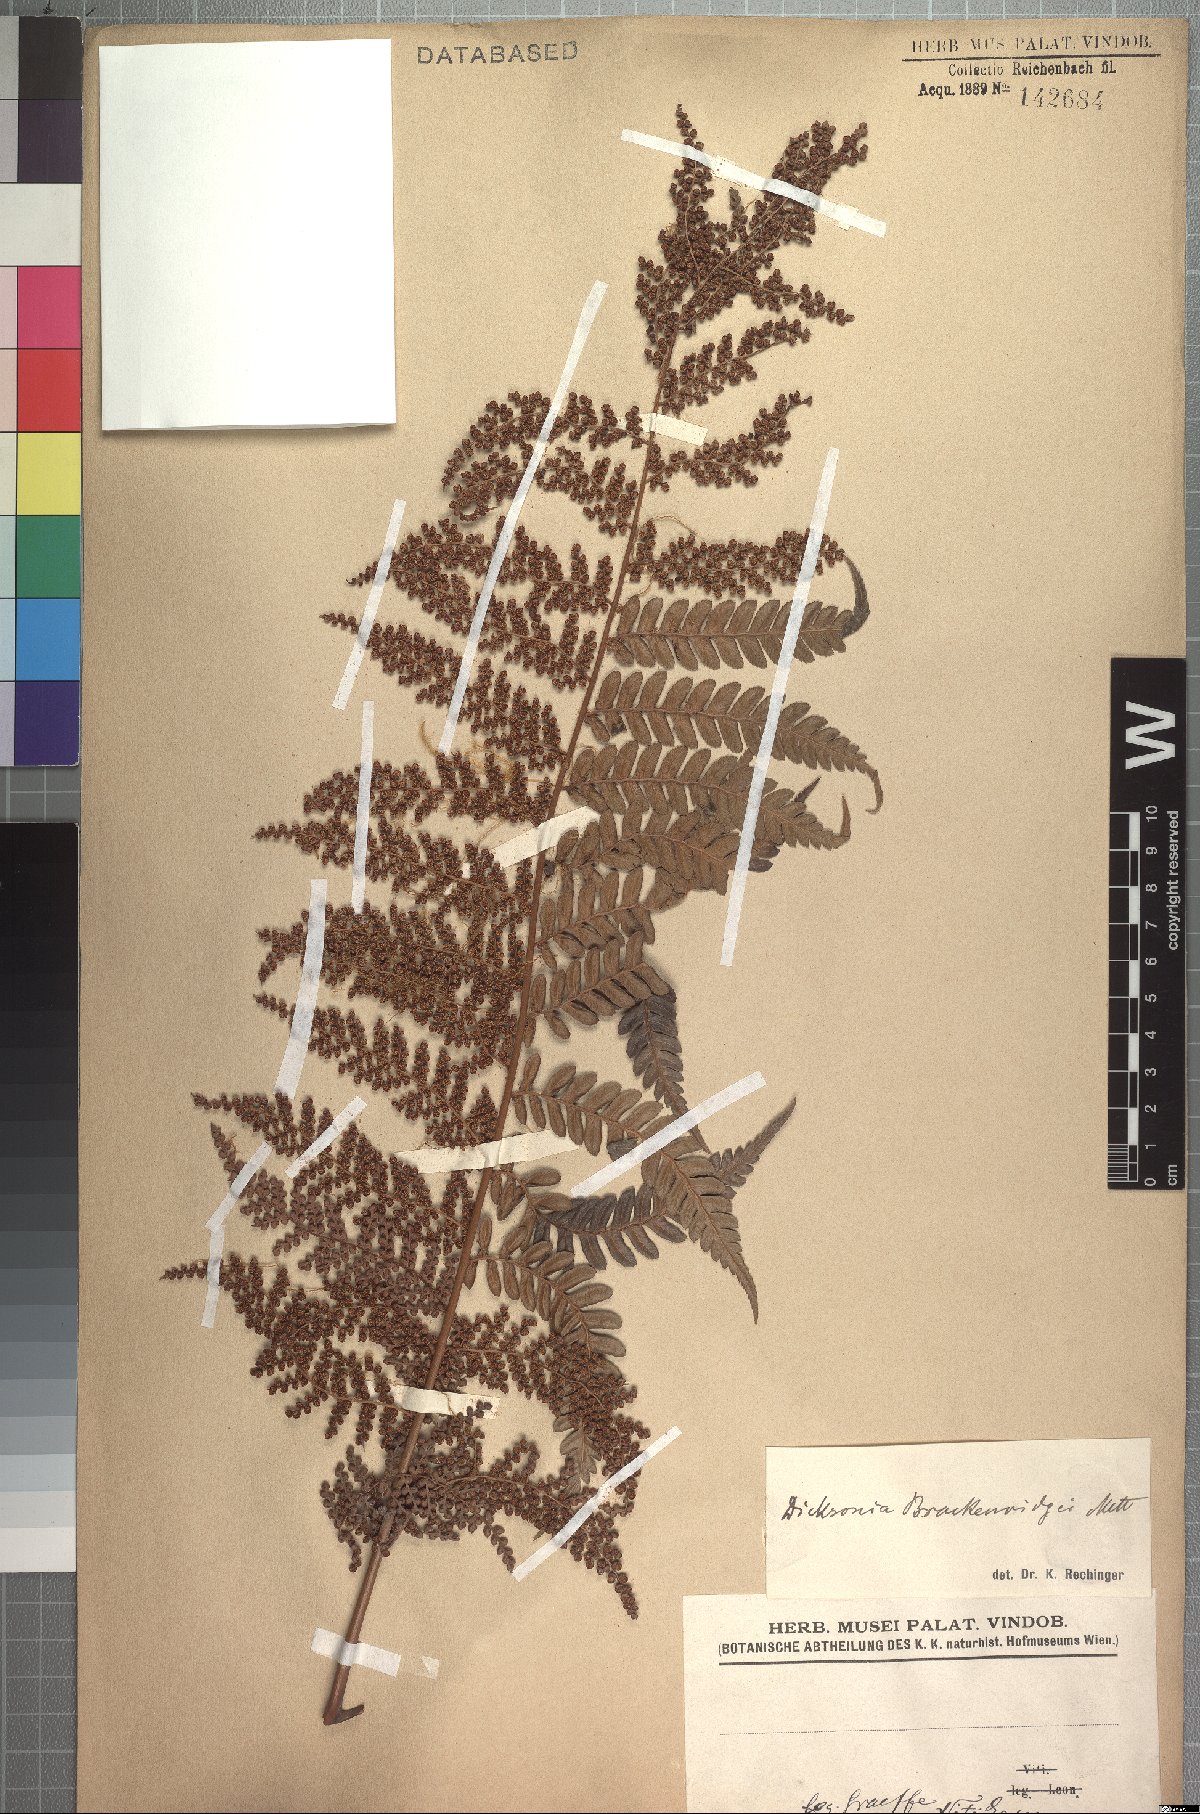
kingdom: Plantae
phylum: Tracheophyta
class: Polypodiopsida
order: Cyatheales
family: Dicksoniaceae
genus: Dicksonia
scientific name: Dicksonia brackenridgei
